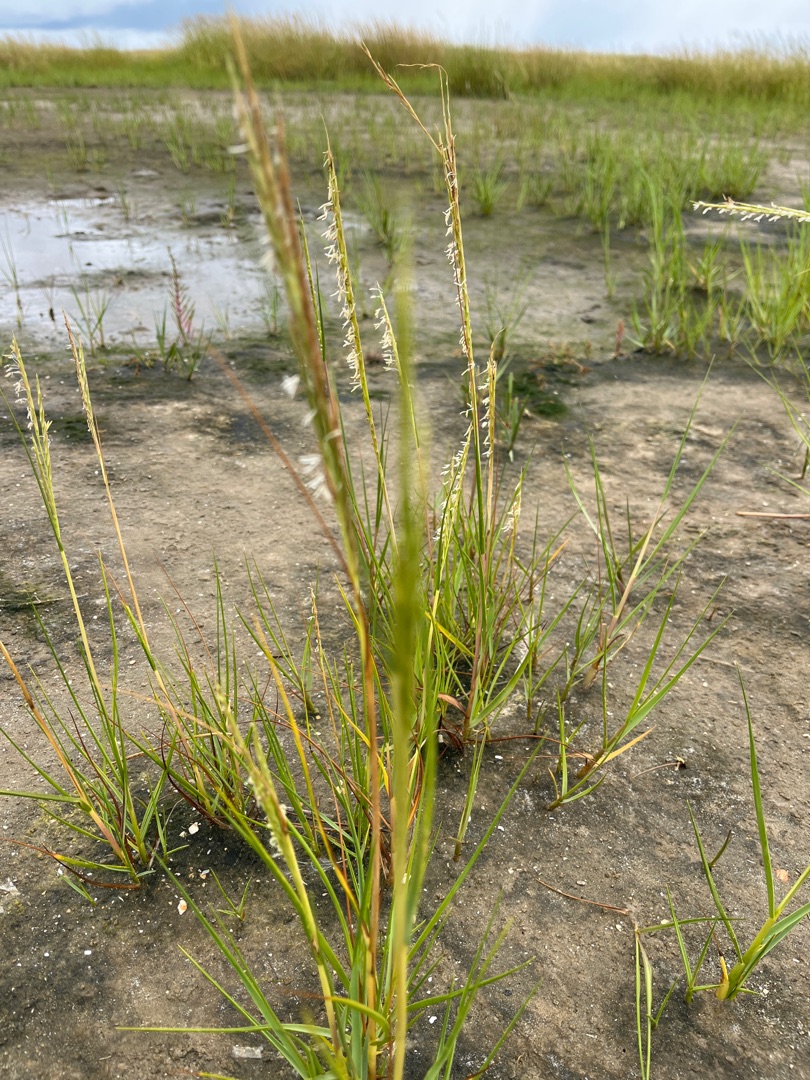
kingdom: Plantae
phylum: Tracheophyta
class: Liliopsida
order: Poales
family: Poaceae
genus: Sporobolus
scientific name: Sporobolus anglicus
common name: Engelsk vadegræs
